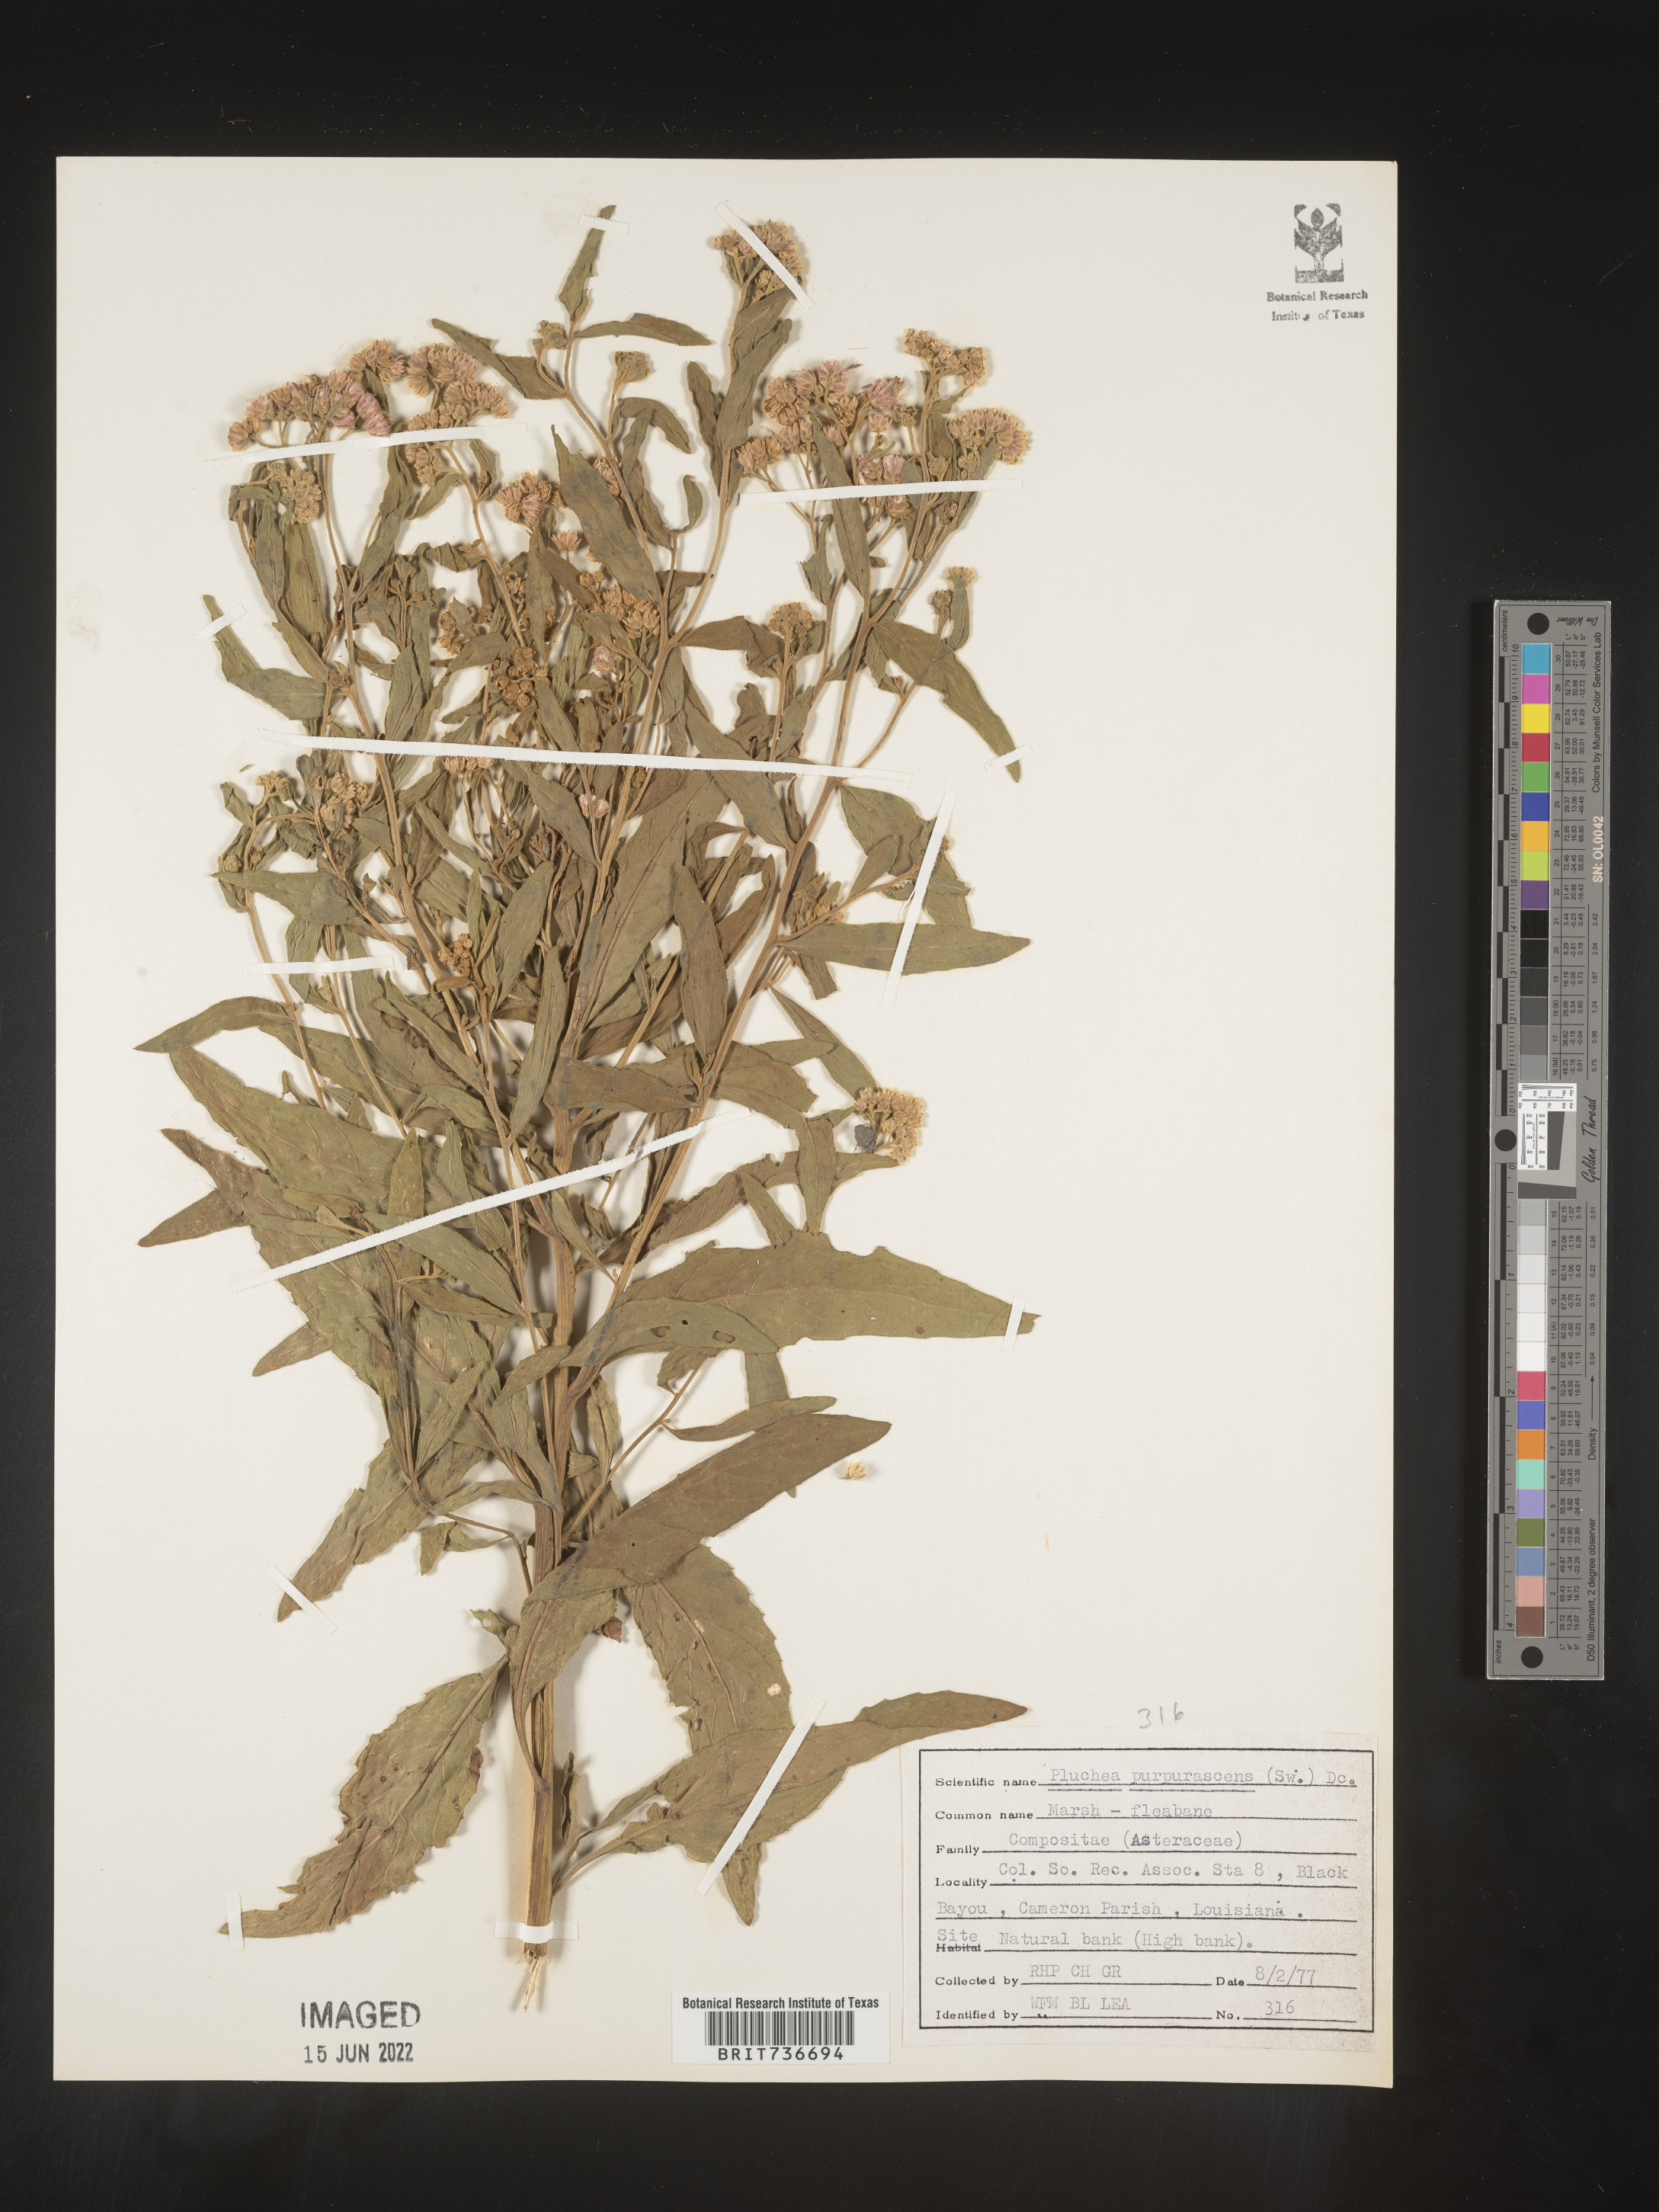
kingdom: Plantae
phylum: Tracheophyta
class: Magnoliopsida
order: Asterales
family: Asteraceae
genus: Pluchea
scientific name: Pluchea odorata
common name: Saltmarsh fleabane
